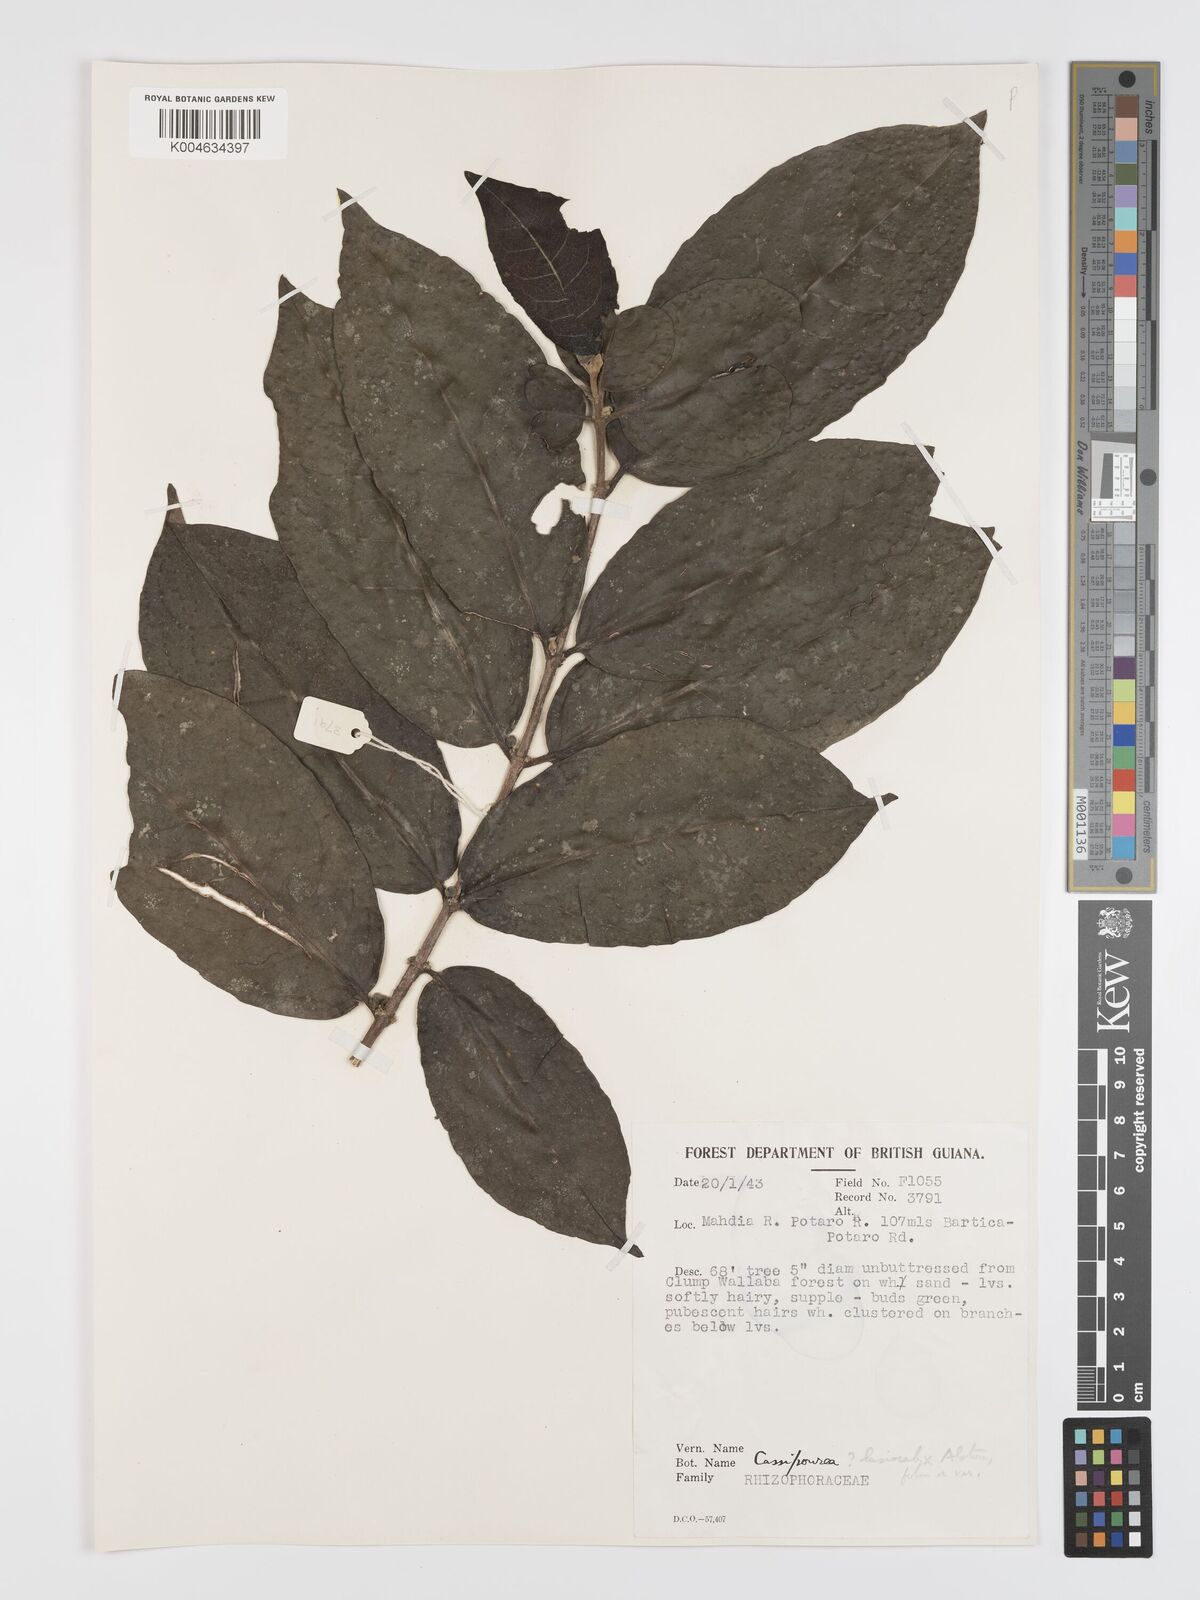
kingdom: Plantae
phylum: Tracheophyta
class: Magnoliopsida
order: Malpighiales
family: Rhizophoraceae
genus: Cassipourea
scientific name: Cassipourea lasiocalyx
